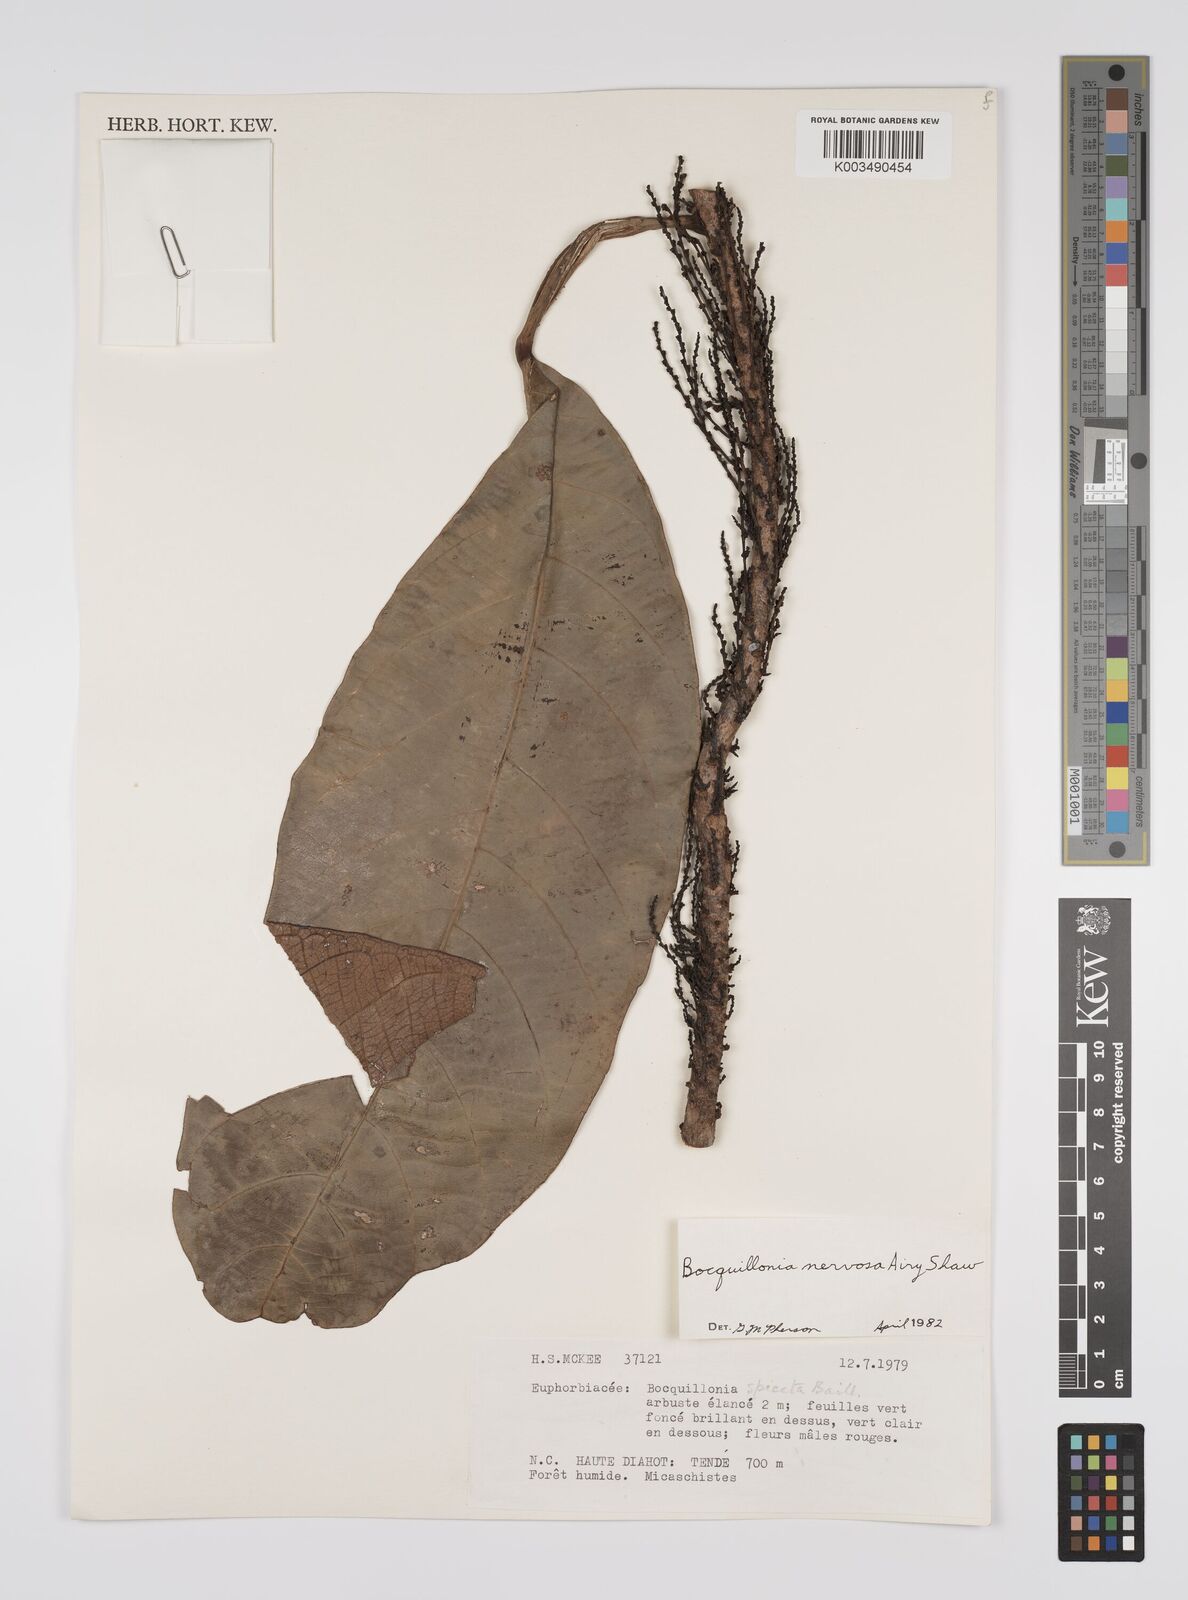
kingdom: Plantae
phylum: Tracheophyta
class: Magnoliopsida
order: Malpighiales
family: Euphorbiaceae
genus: Bocquillonia
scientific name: Bocquillonia nervosa
